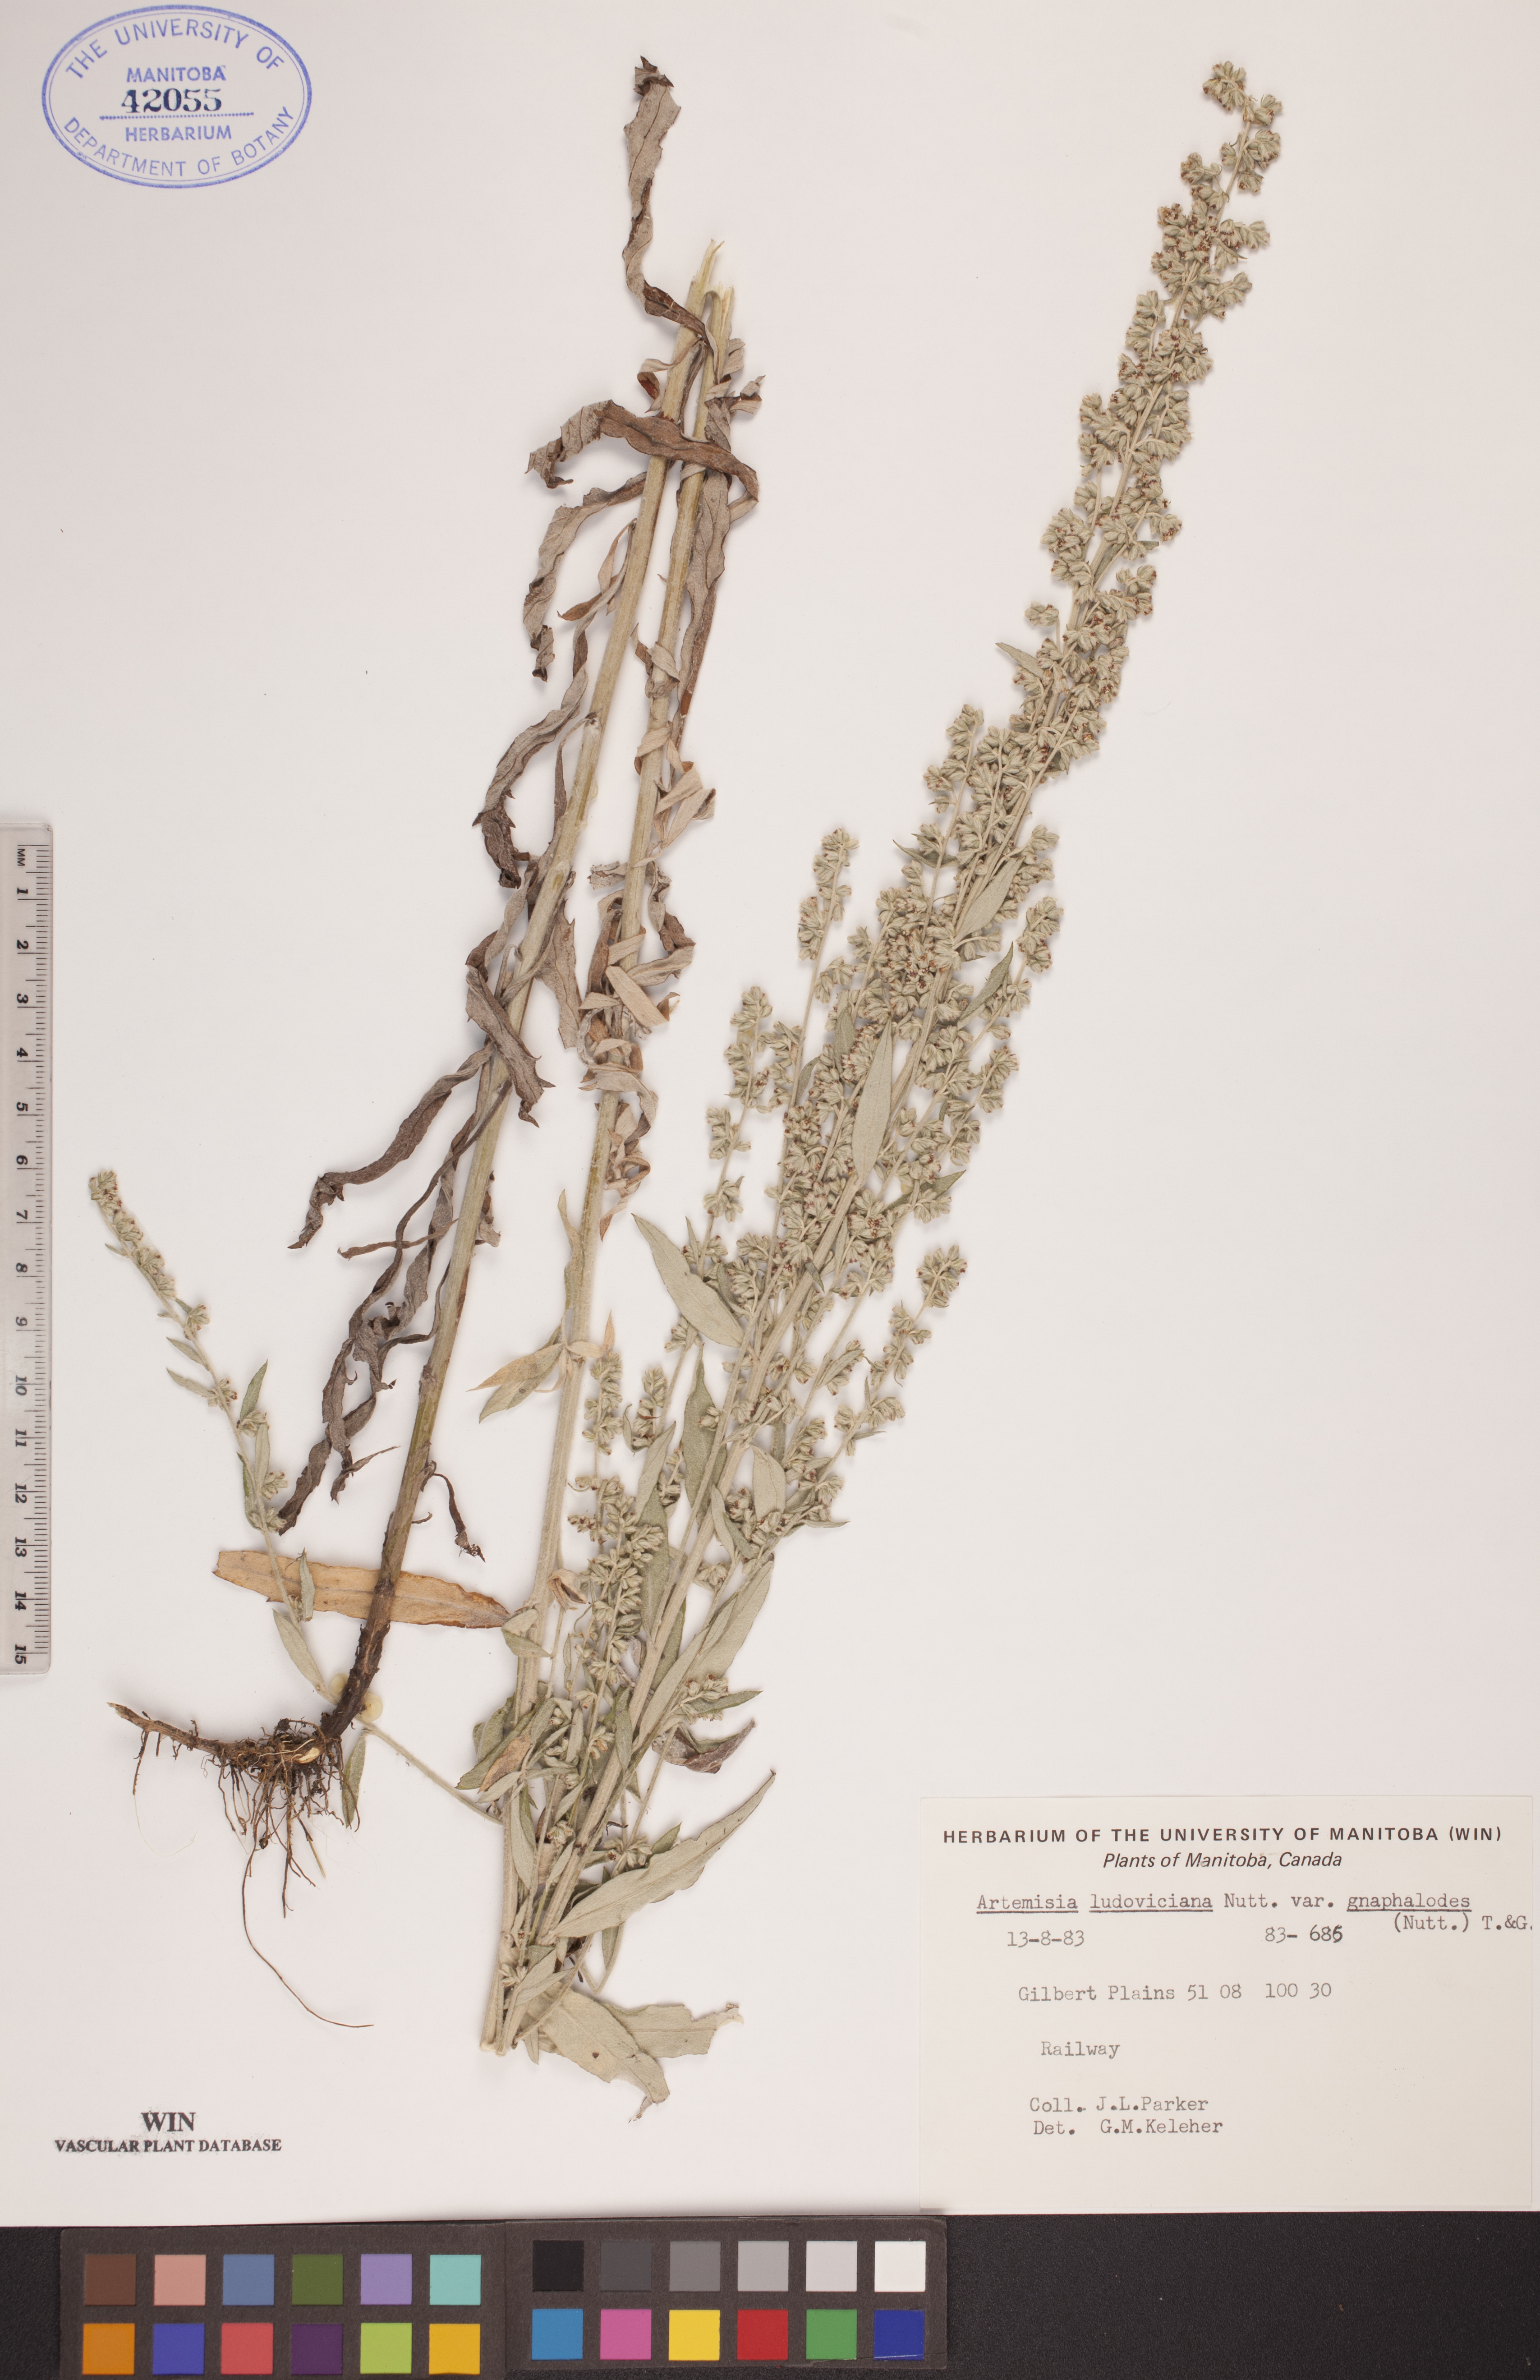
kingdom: Plantae
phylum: Tracheophyta
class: Magnoliopsida
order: Asterales
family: Asteraceae
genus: Artemisia
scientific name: Artemisia ludoviciana
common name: Western mugwort
